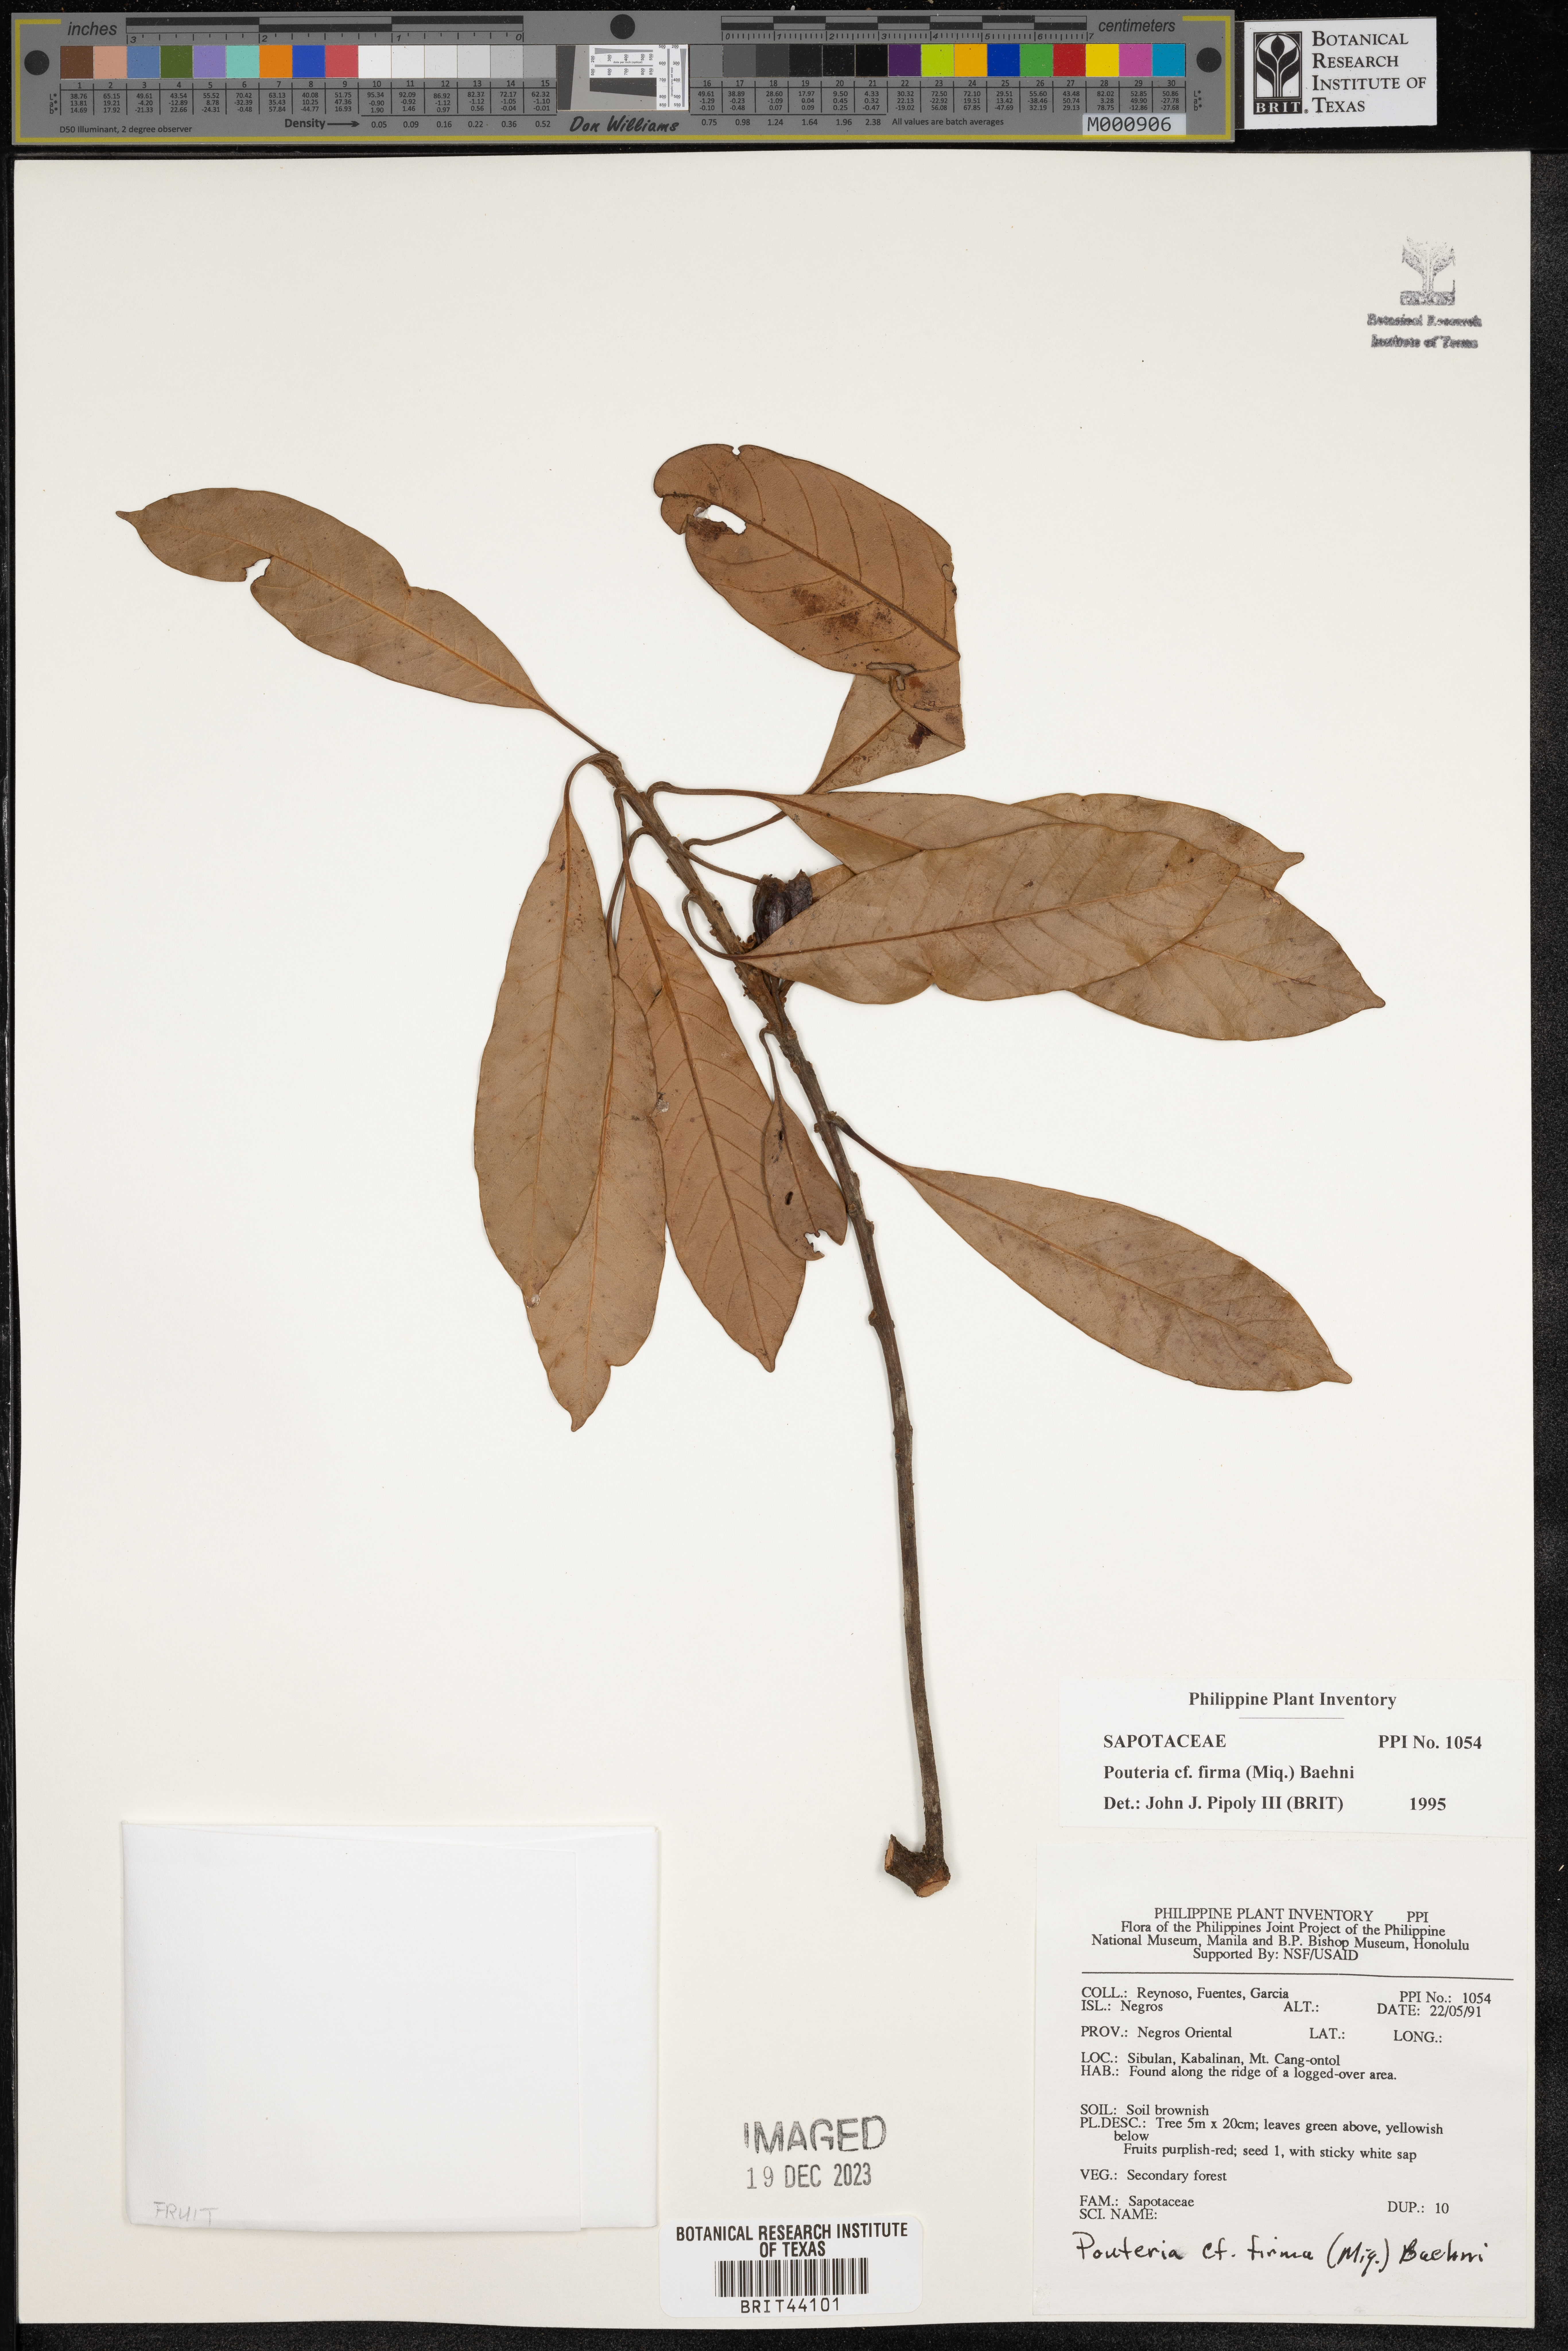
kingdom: Plantae
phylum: Tracheophyta
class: Magnoliopsida
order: Ericales
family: Sapotaceae
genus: Pleioluma
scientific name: Pleioluma firma
